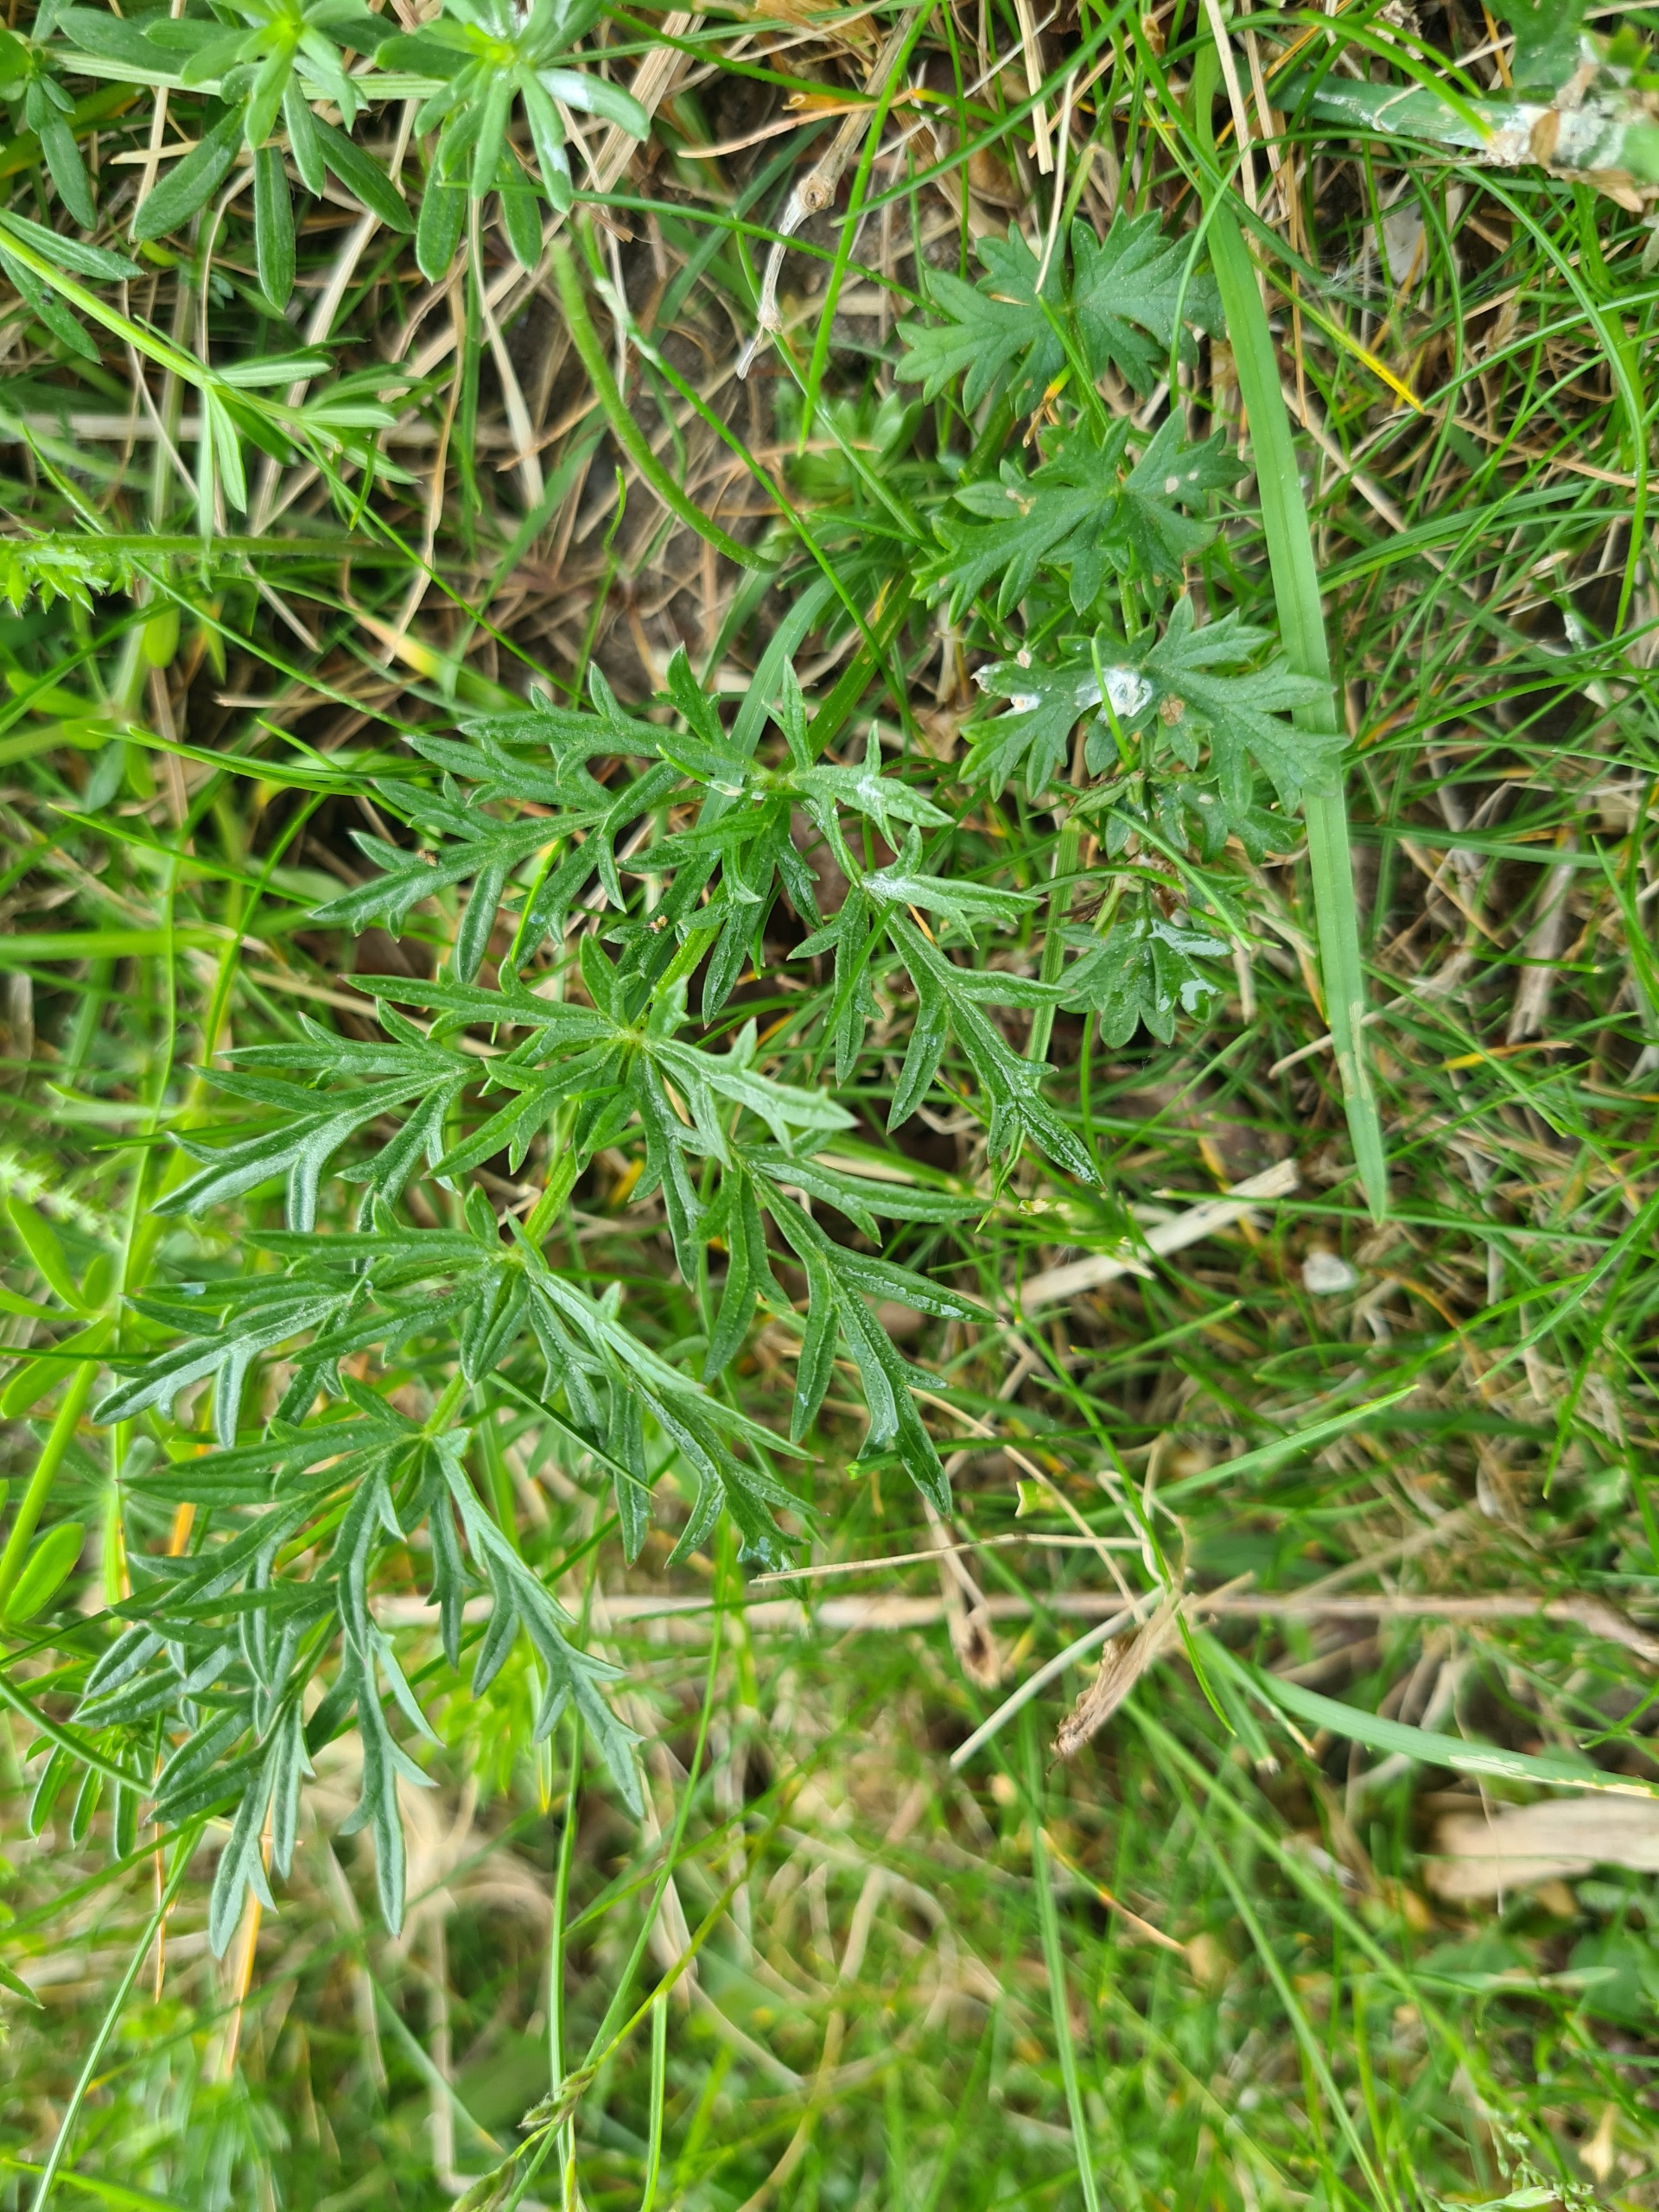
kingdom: Plantae
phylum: Tracheophyta
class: Magnoliopsida
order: Apiales
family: Apiaceae
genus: Pimpinella
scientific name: Pimpinella saxifraga
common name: Almindelig pimpinelle
